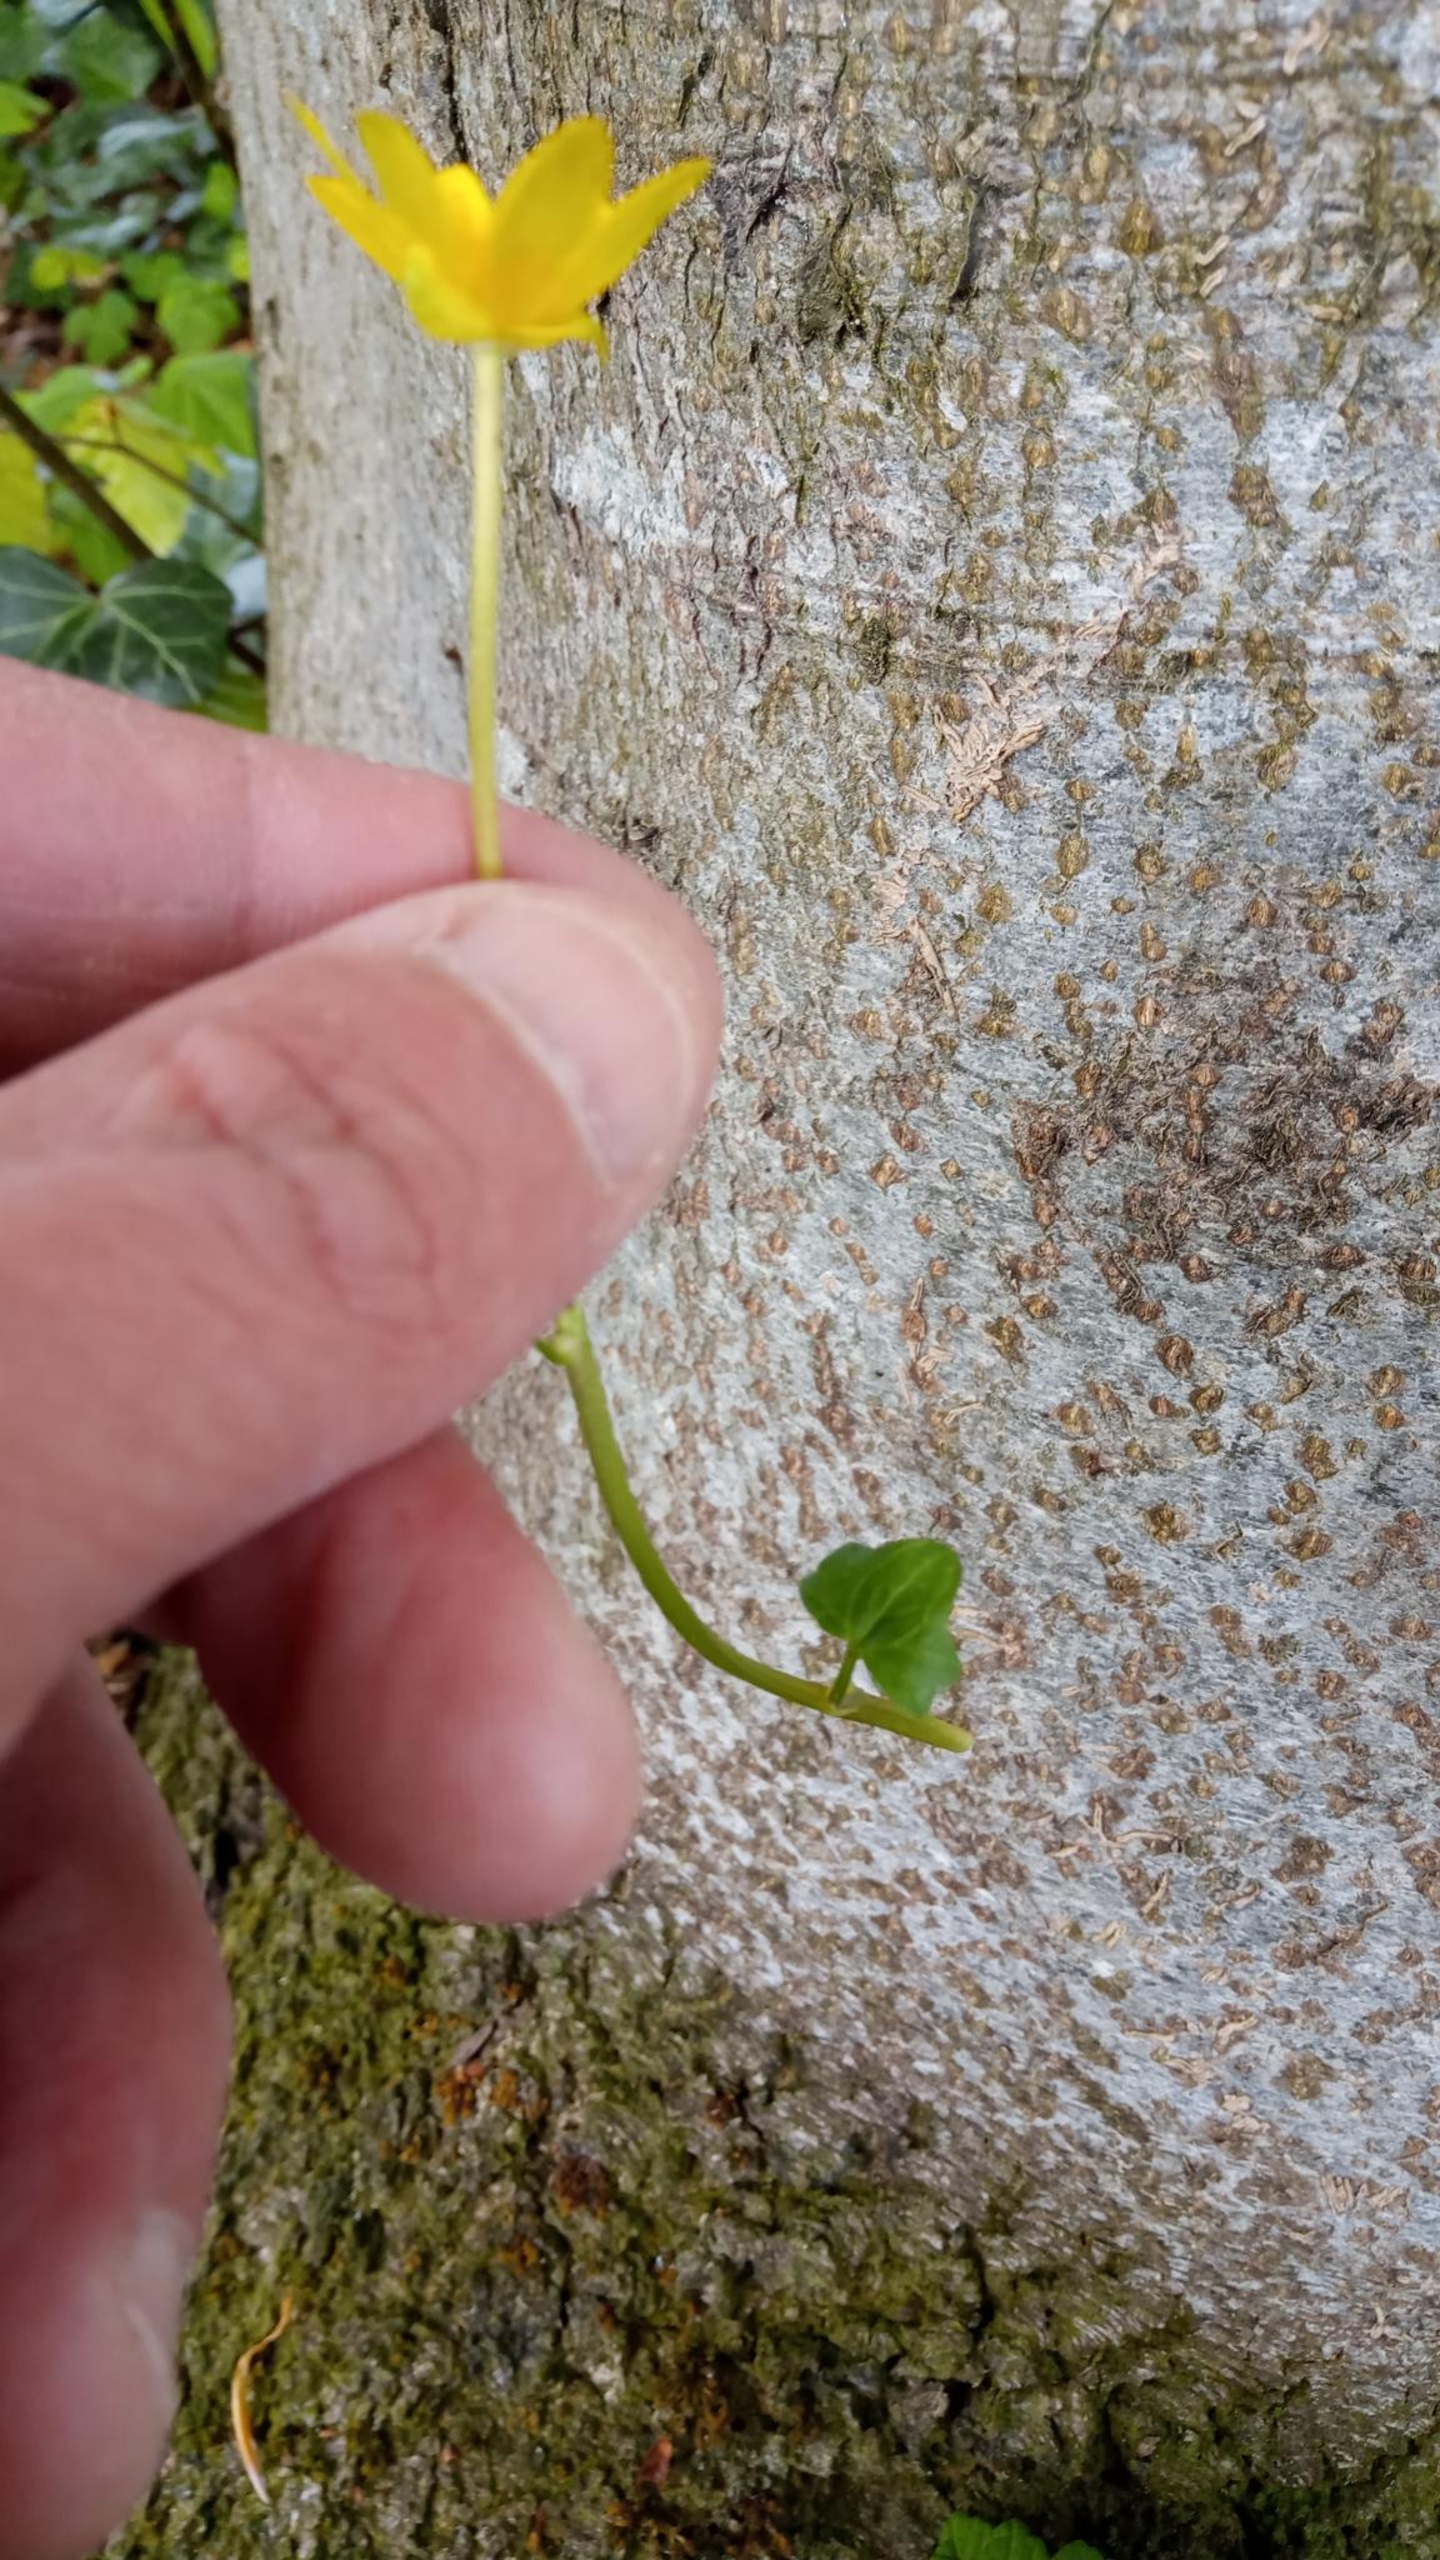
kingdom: Plantae
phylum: Tracheophyta
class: Magnoliopsida
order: Ranunculales
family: Ranunculaceae
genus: Ficaria
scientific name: Ficaria verna
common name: Vorterod
